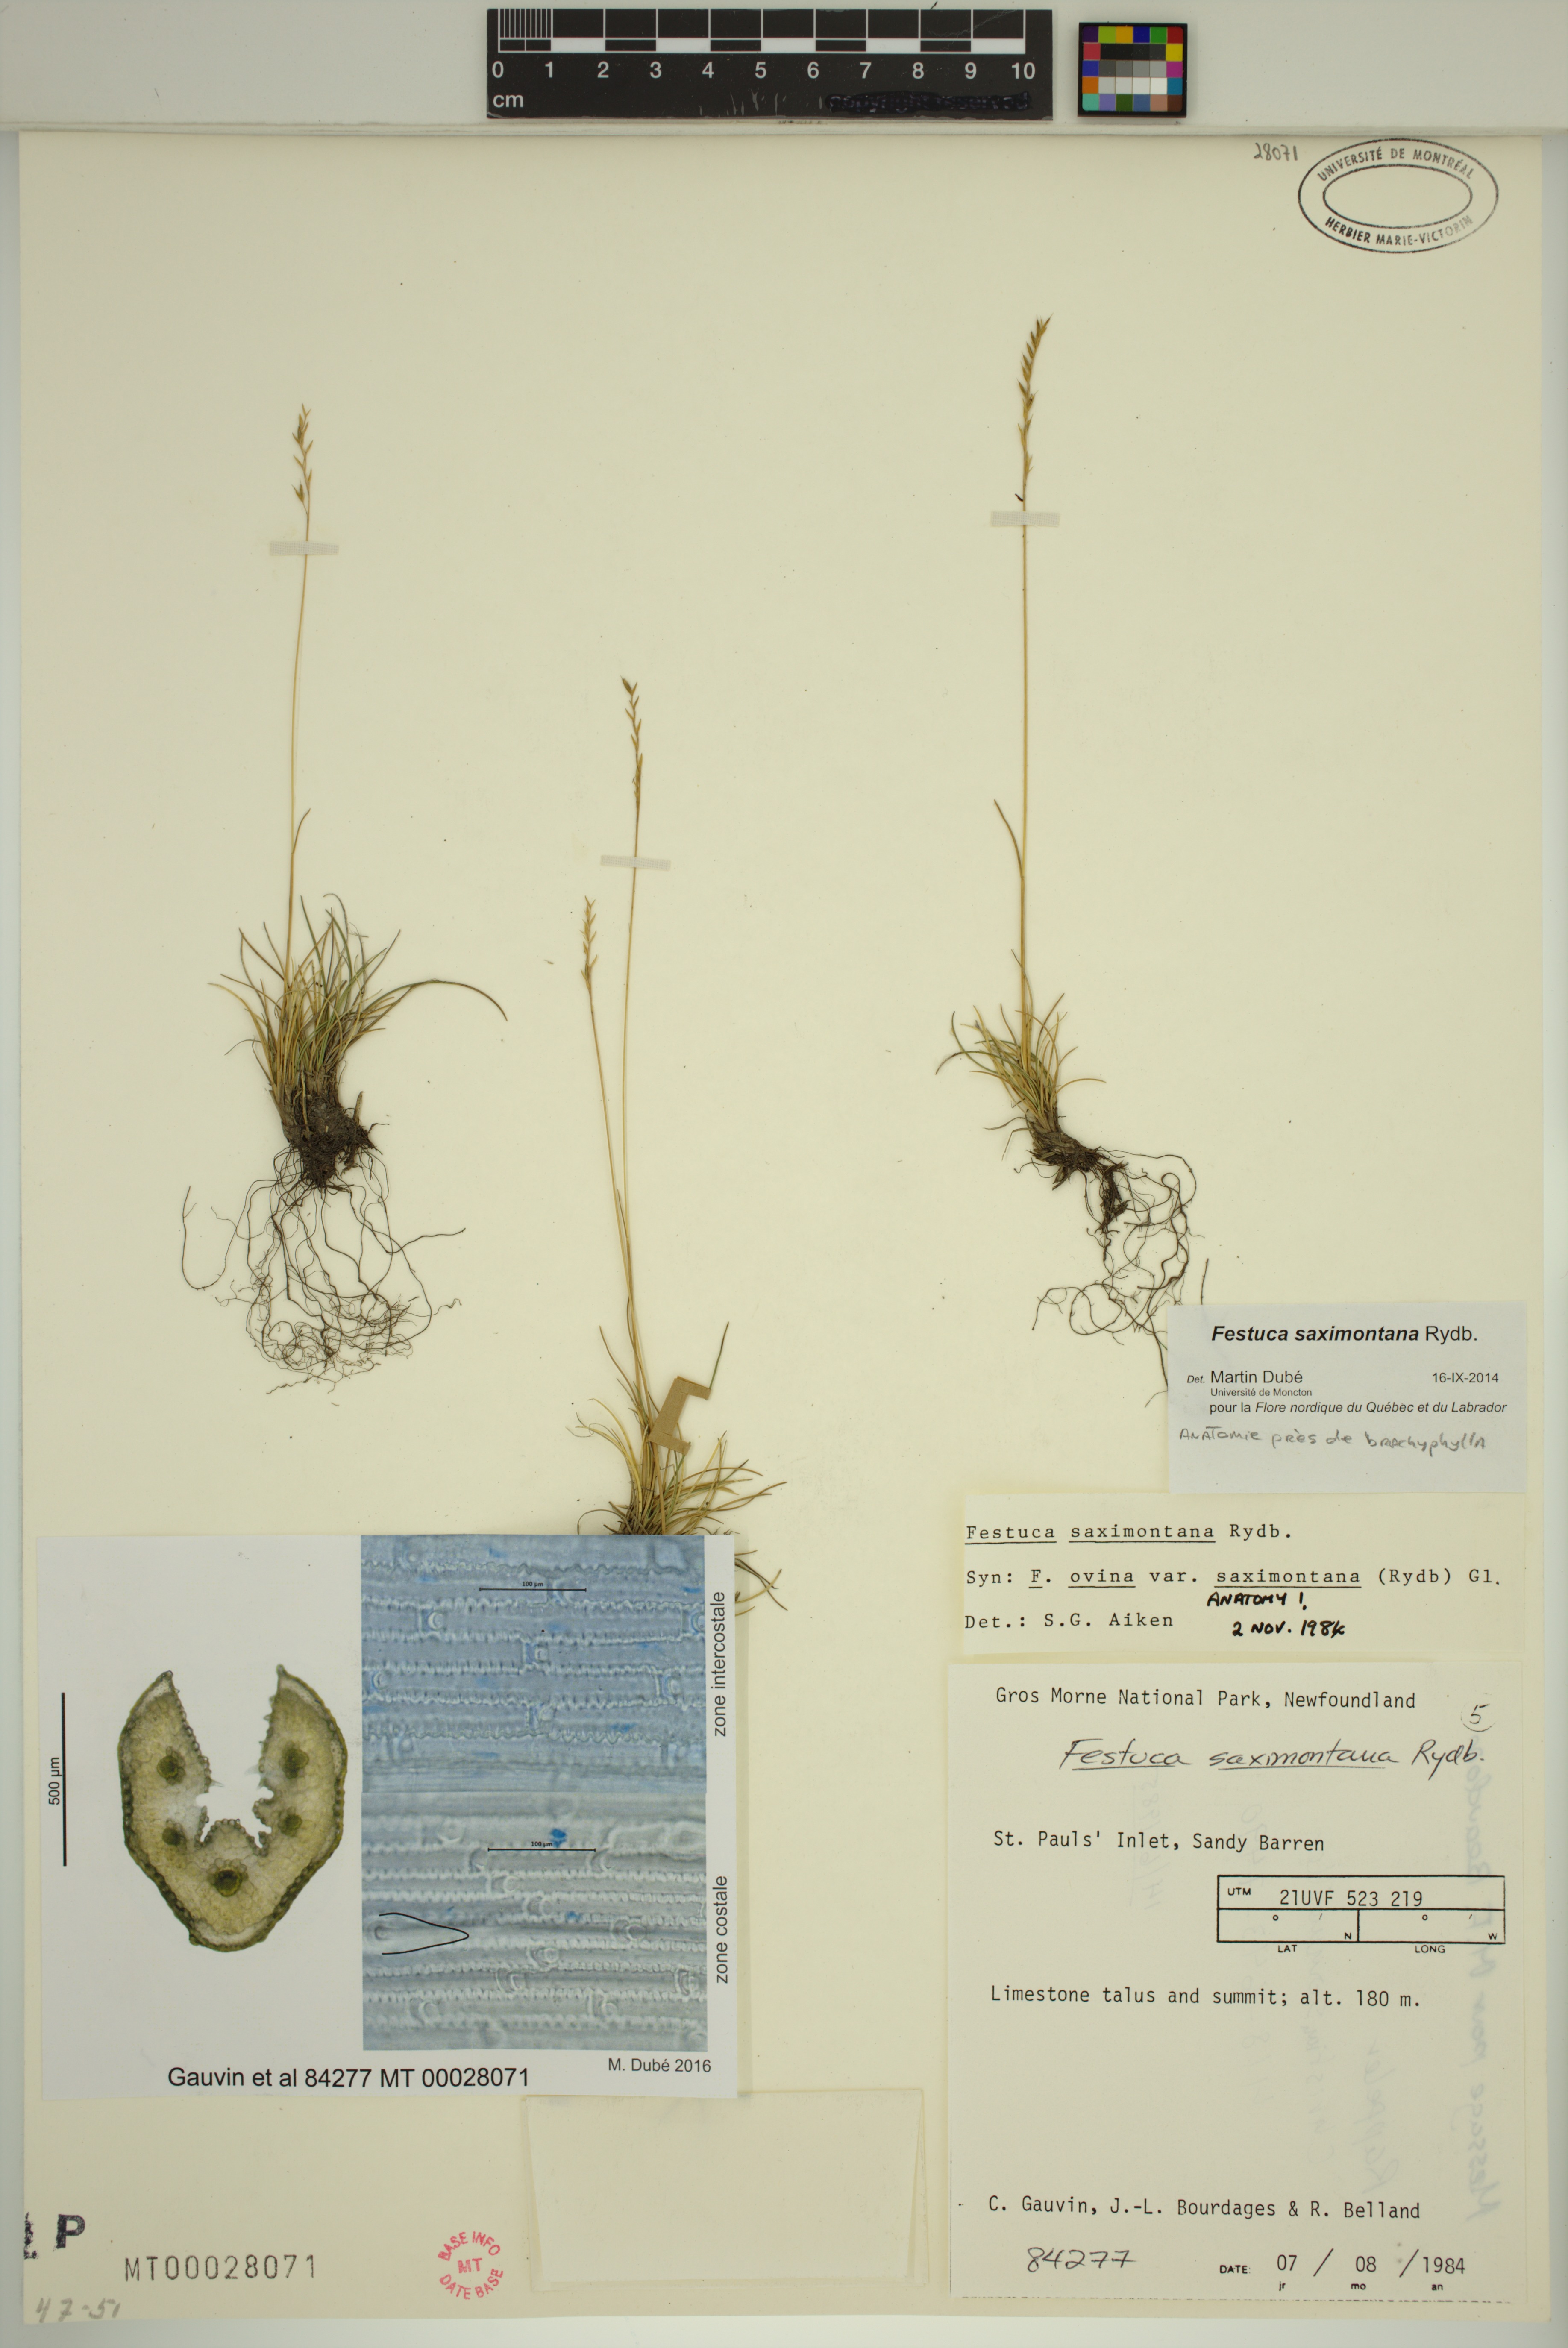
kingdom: Plantae
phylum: Tracheophyta
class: Liliopsida
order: Poales
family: Poaceae
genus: Festuca
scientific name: Festuca saximontana
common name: Mountain fescue
